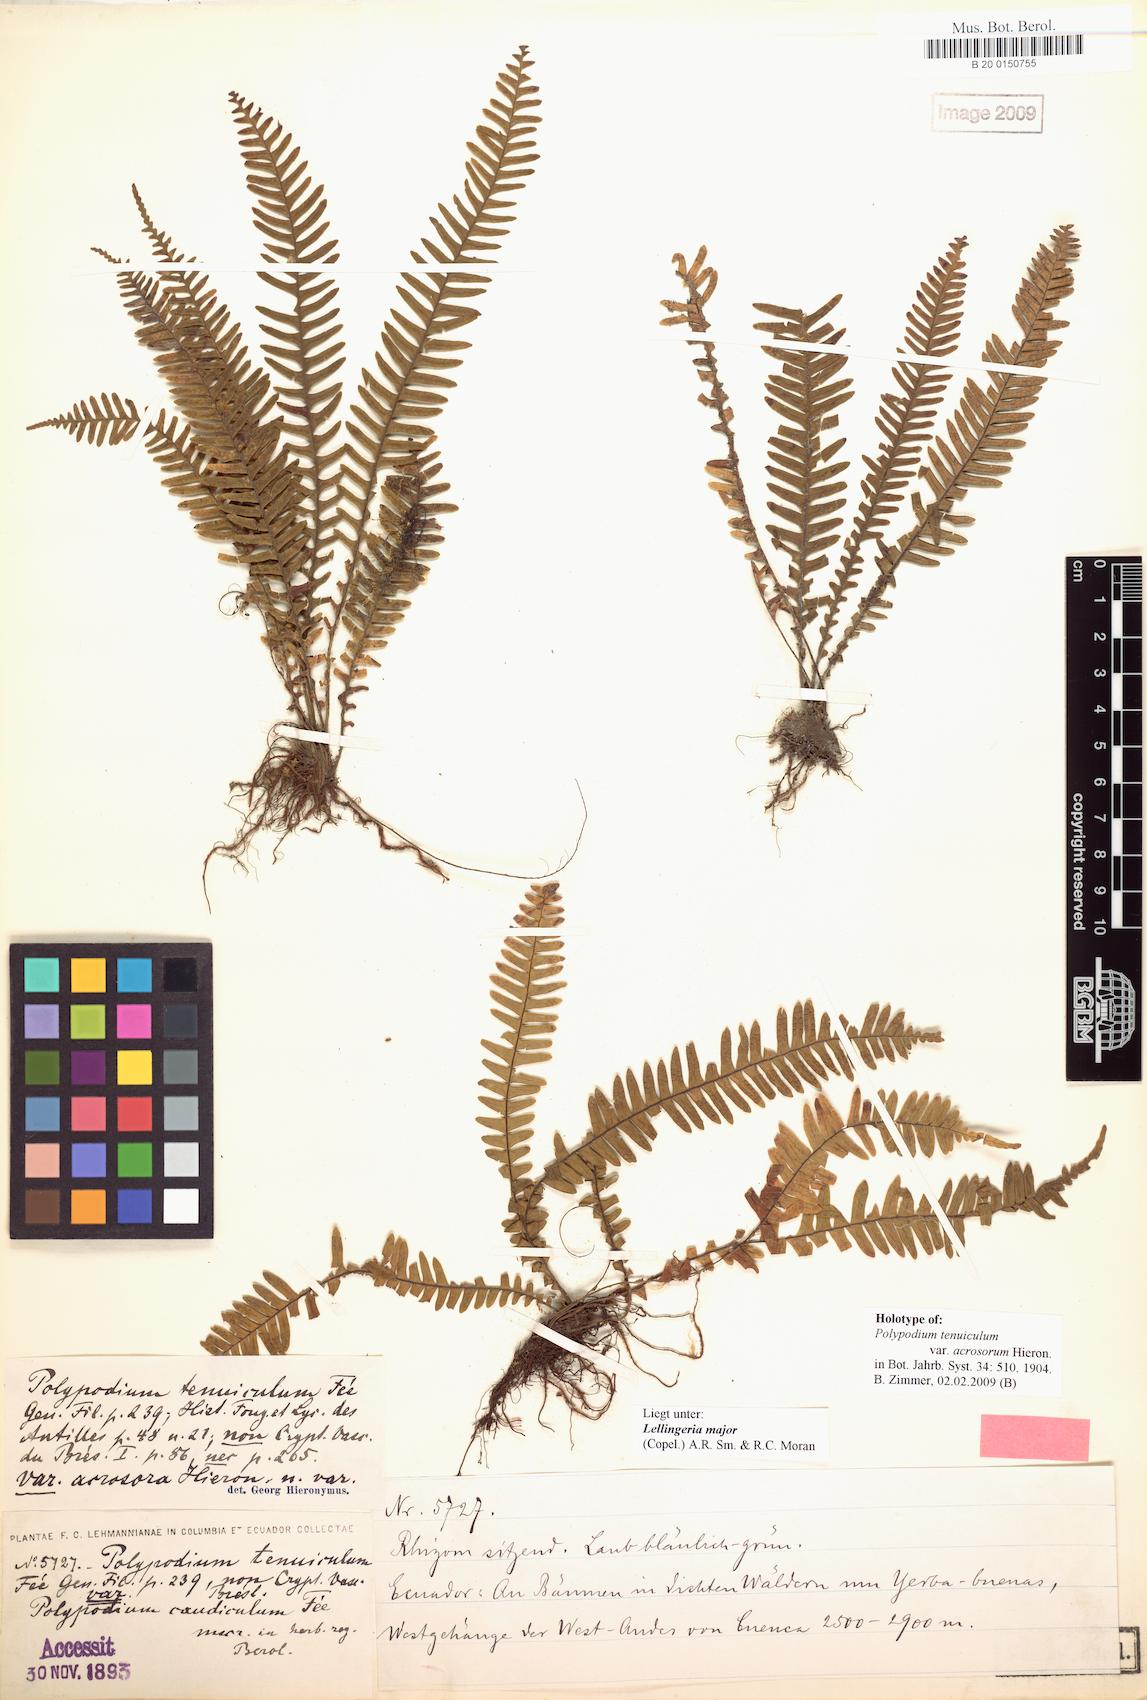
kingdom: Plantae
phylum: Tracheophyta
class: Polypodiopsida
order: Polypodiales
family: Polypodiaceae
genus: Lellingeria
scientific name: Lellingeria major
